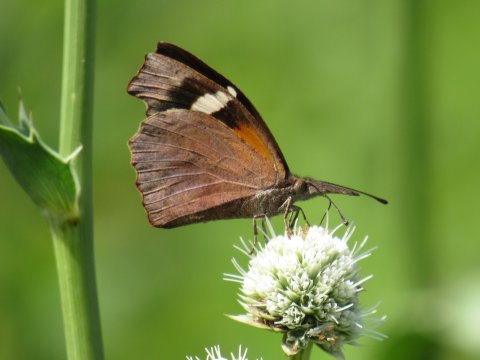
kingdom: Animalia
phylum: Arthropoda
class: Insecta
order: Lepidoptera
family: Nymphalidae
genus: Libytheana
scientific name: Libytheana carinenta
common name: American Snout
